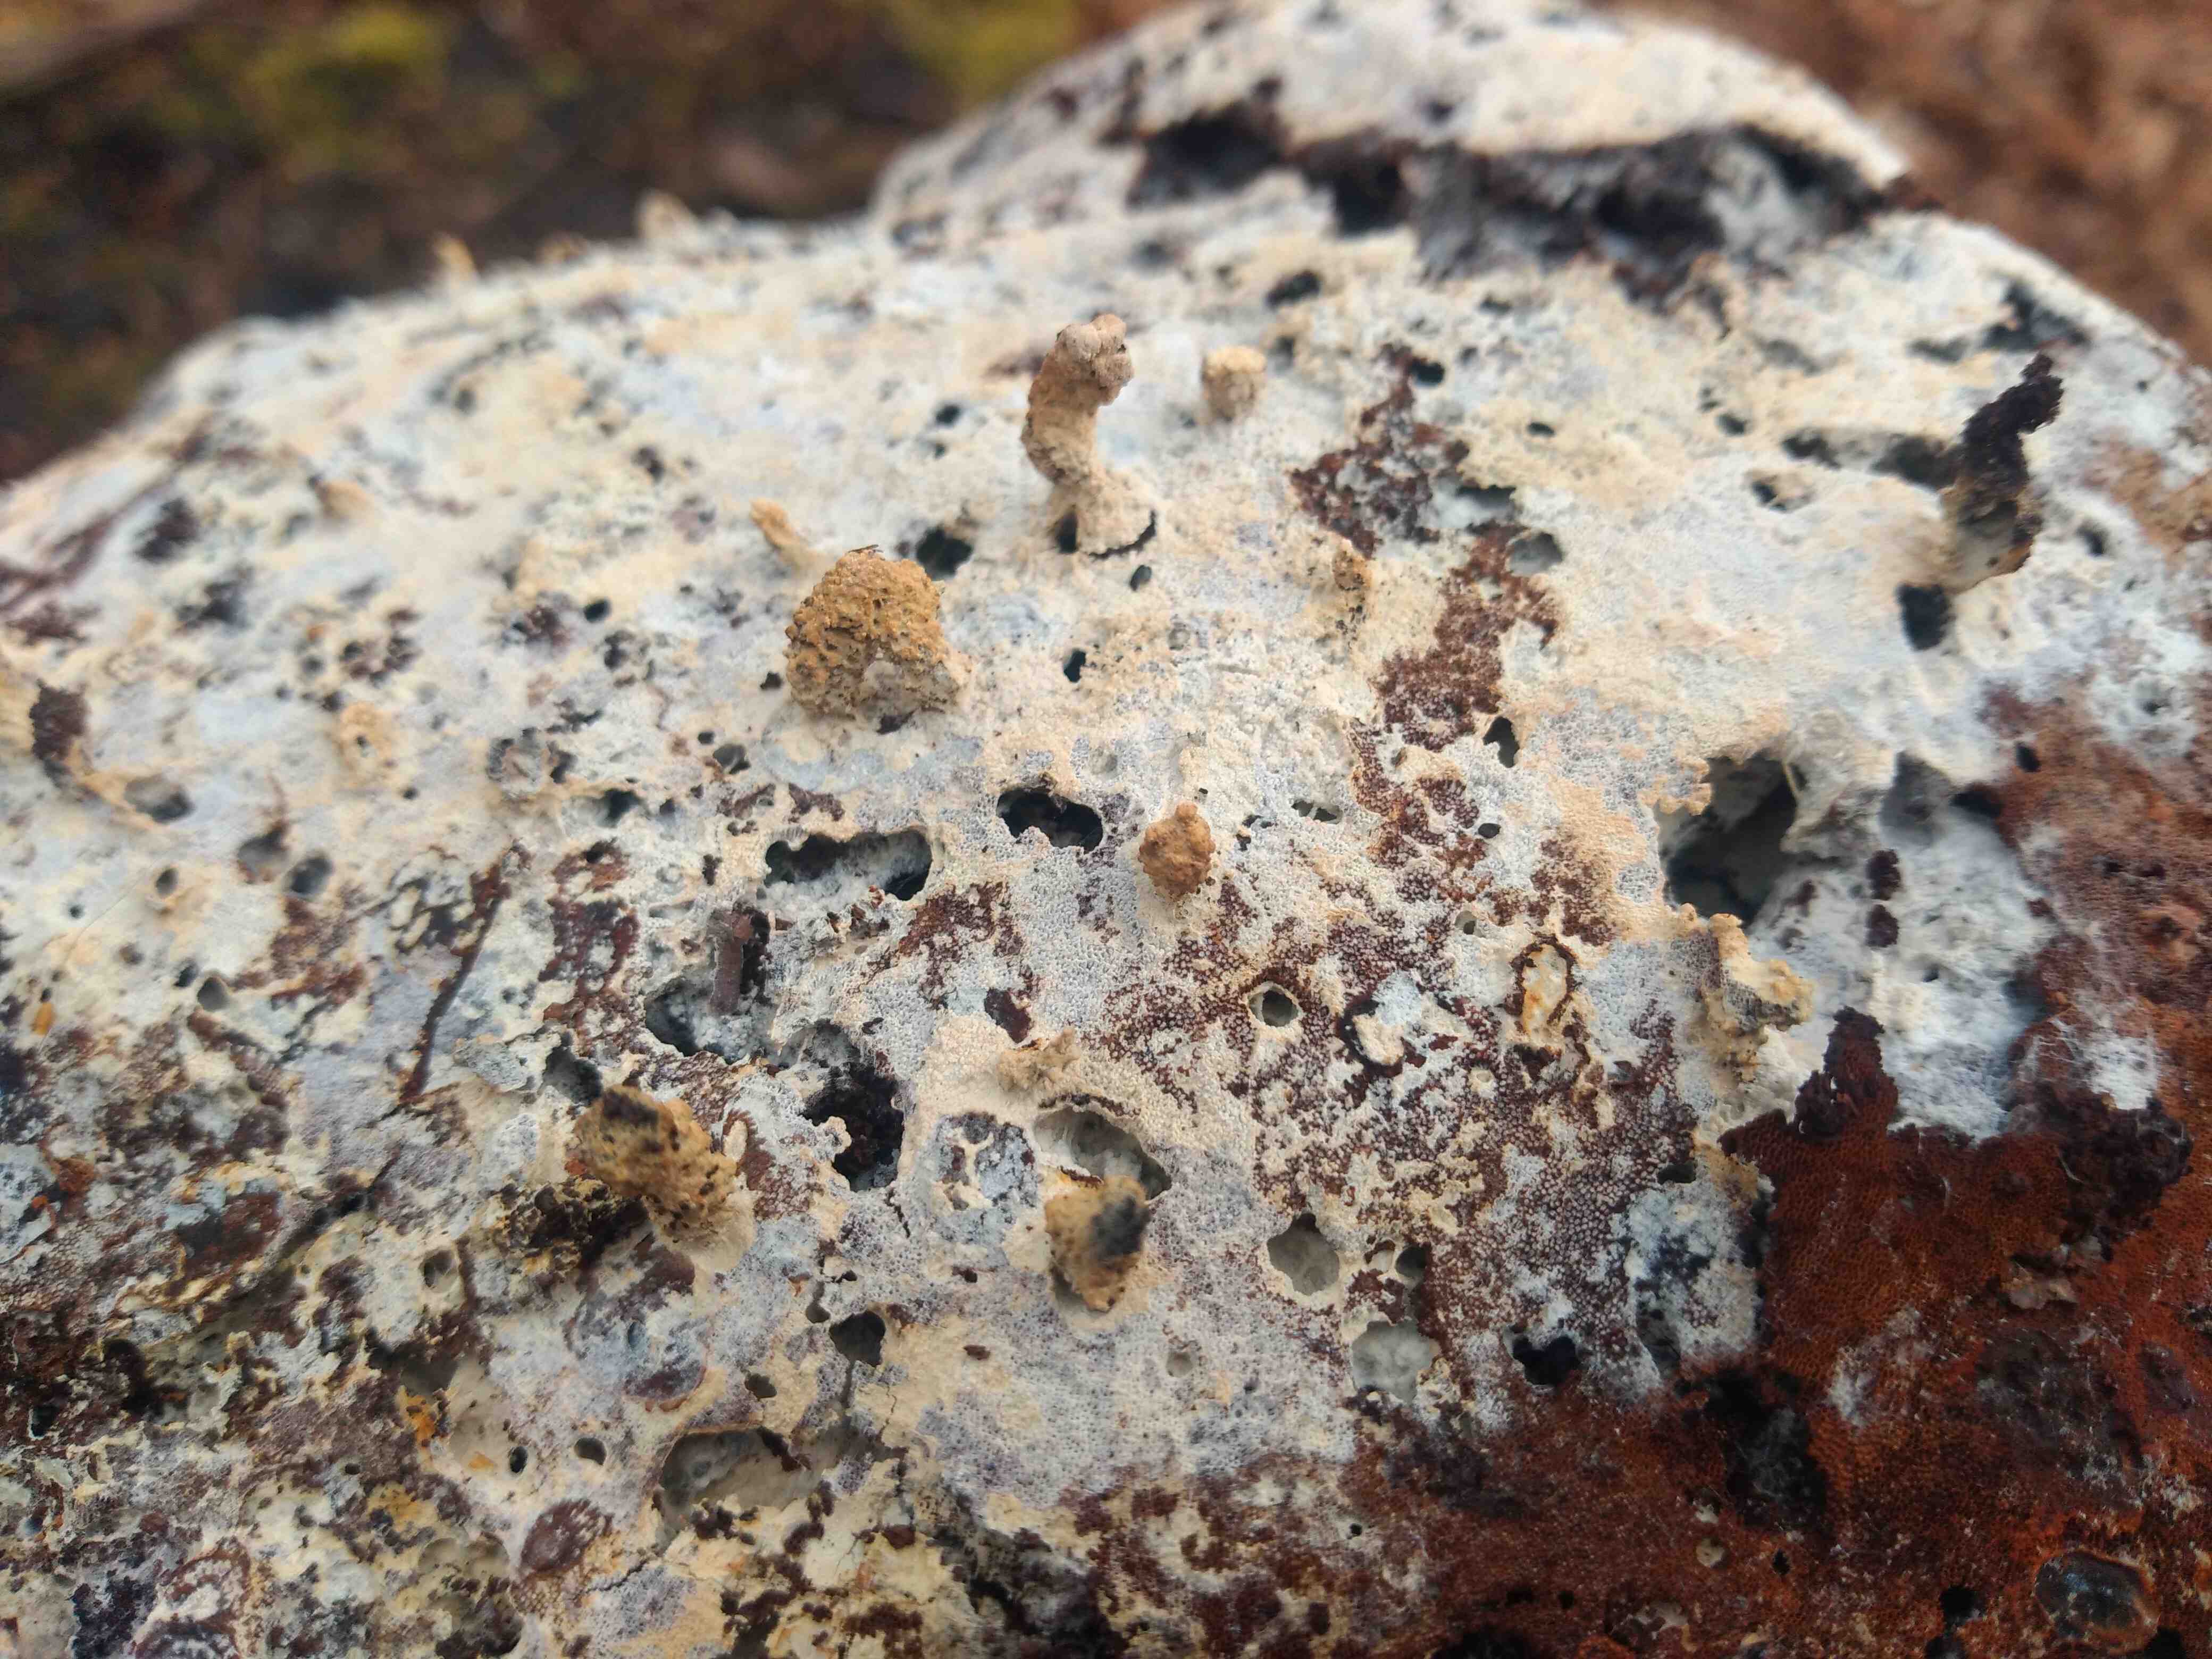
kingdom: Fungi
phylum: Basidiomycota
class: Agaricomycetes
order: Corticiales
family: Corticiaceae
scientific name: Corticiaceae
